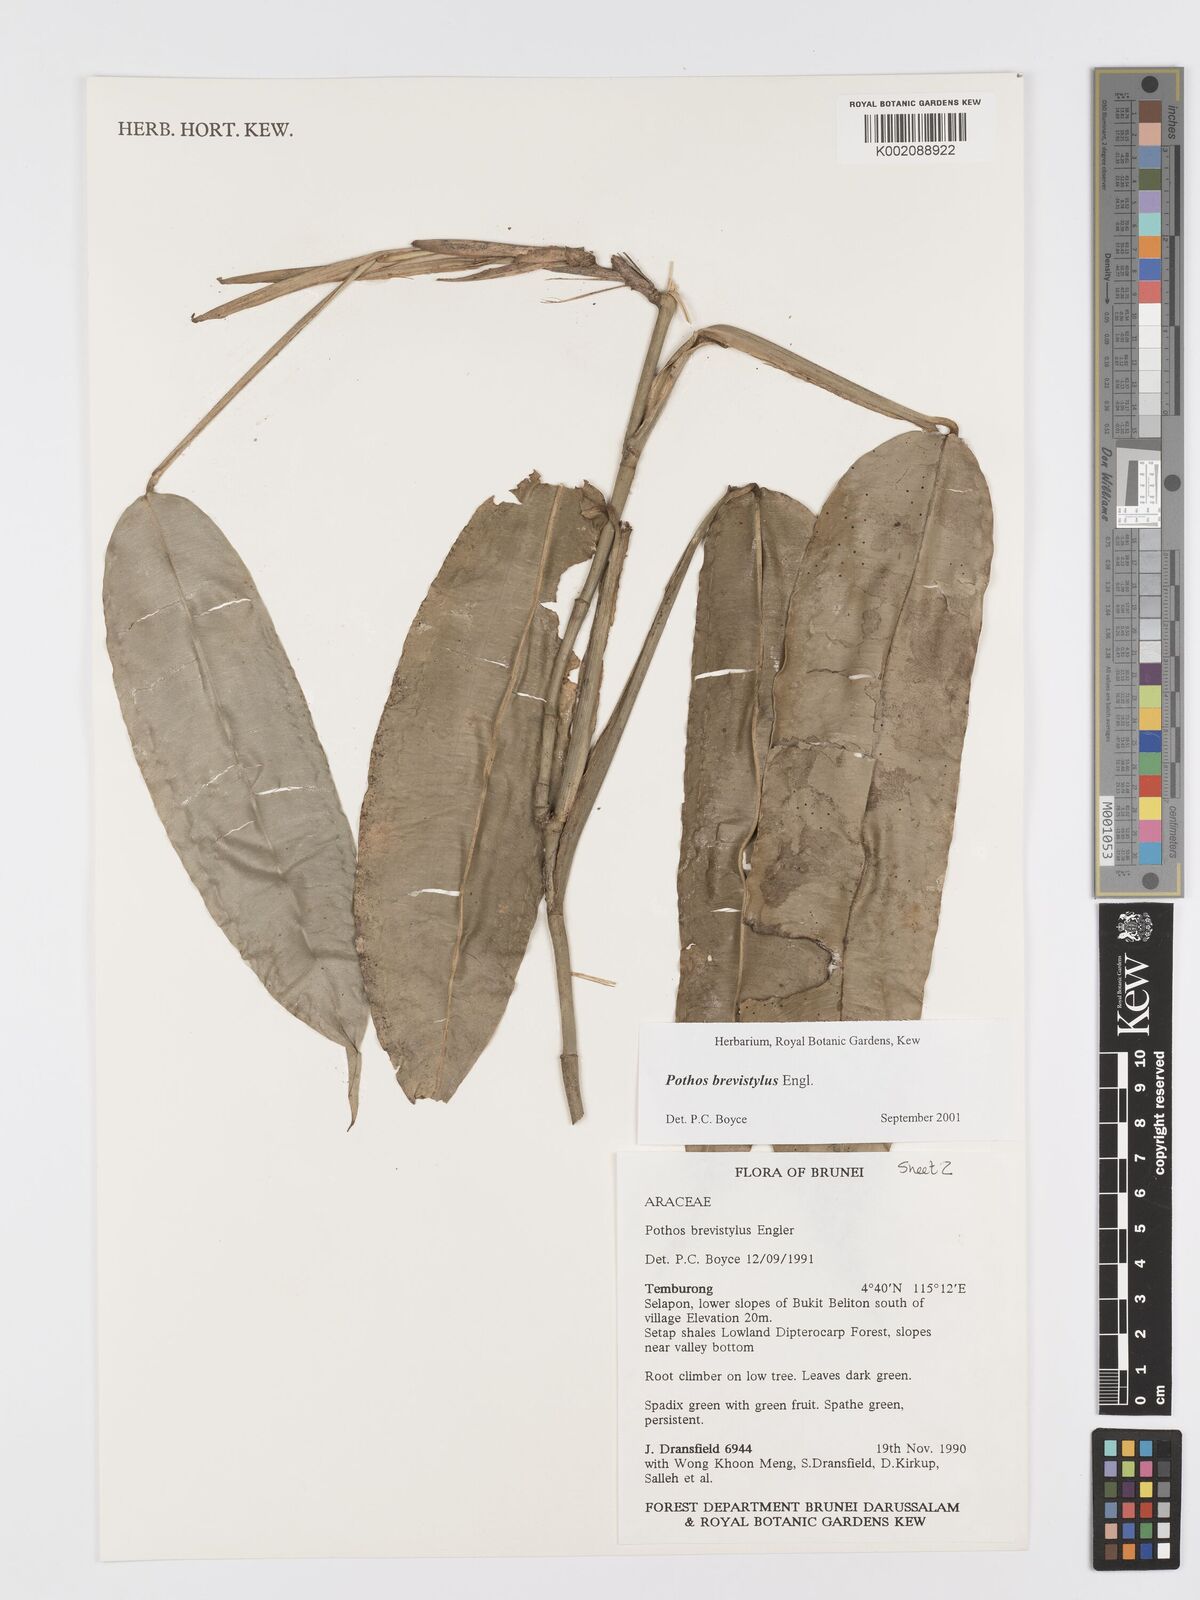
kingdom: Plantae
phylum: Tracheophyta
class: Liliopsida
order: Alismatales
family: Araceae
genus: Pothos
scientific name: Pothos brevistylus
